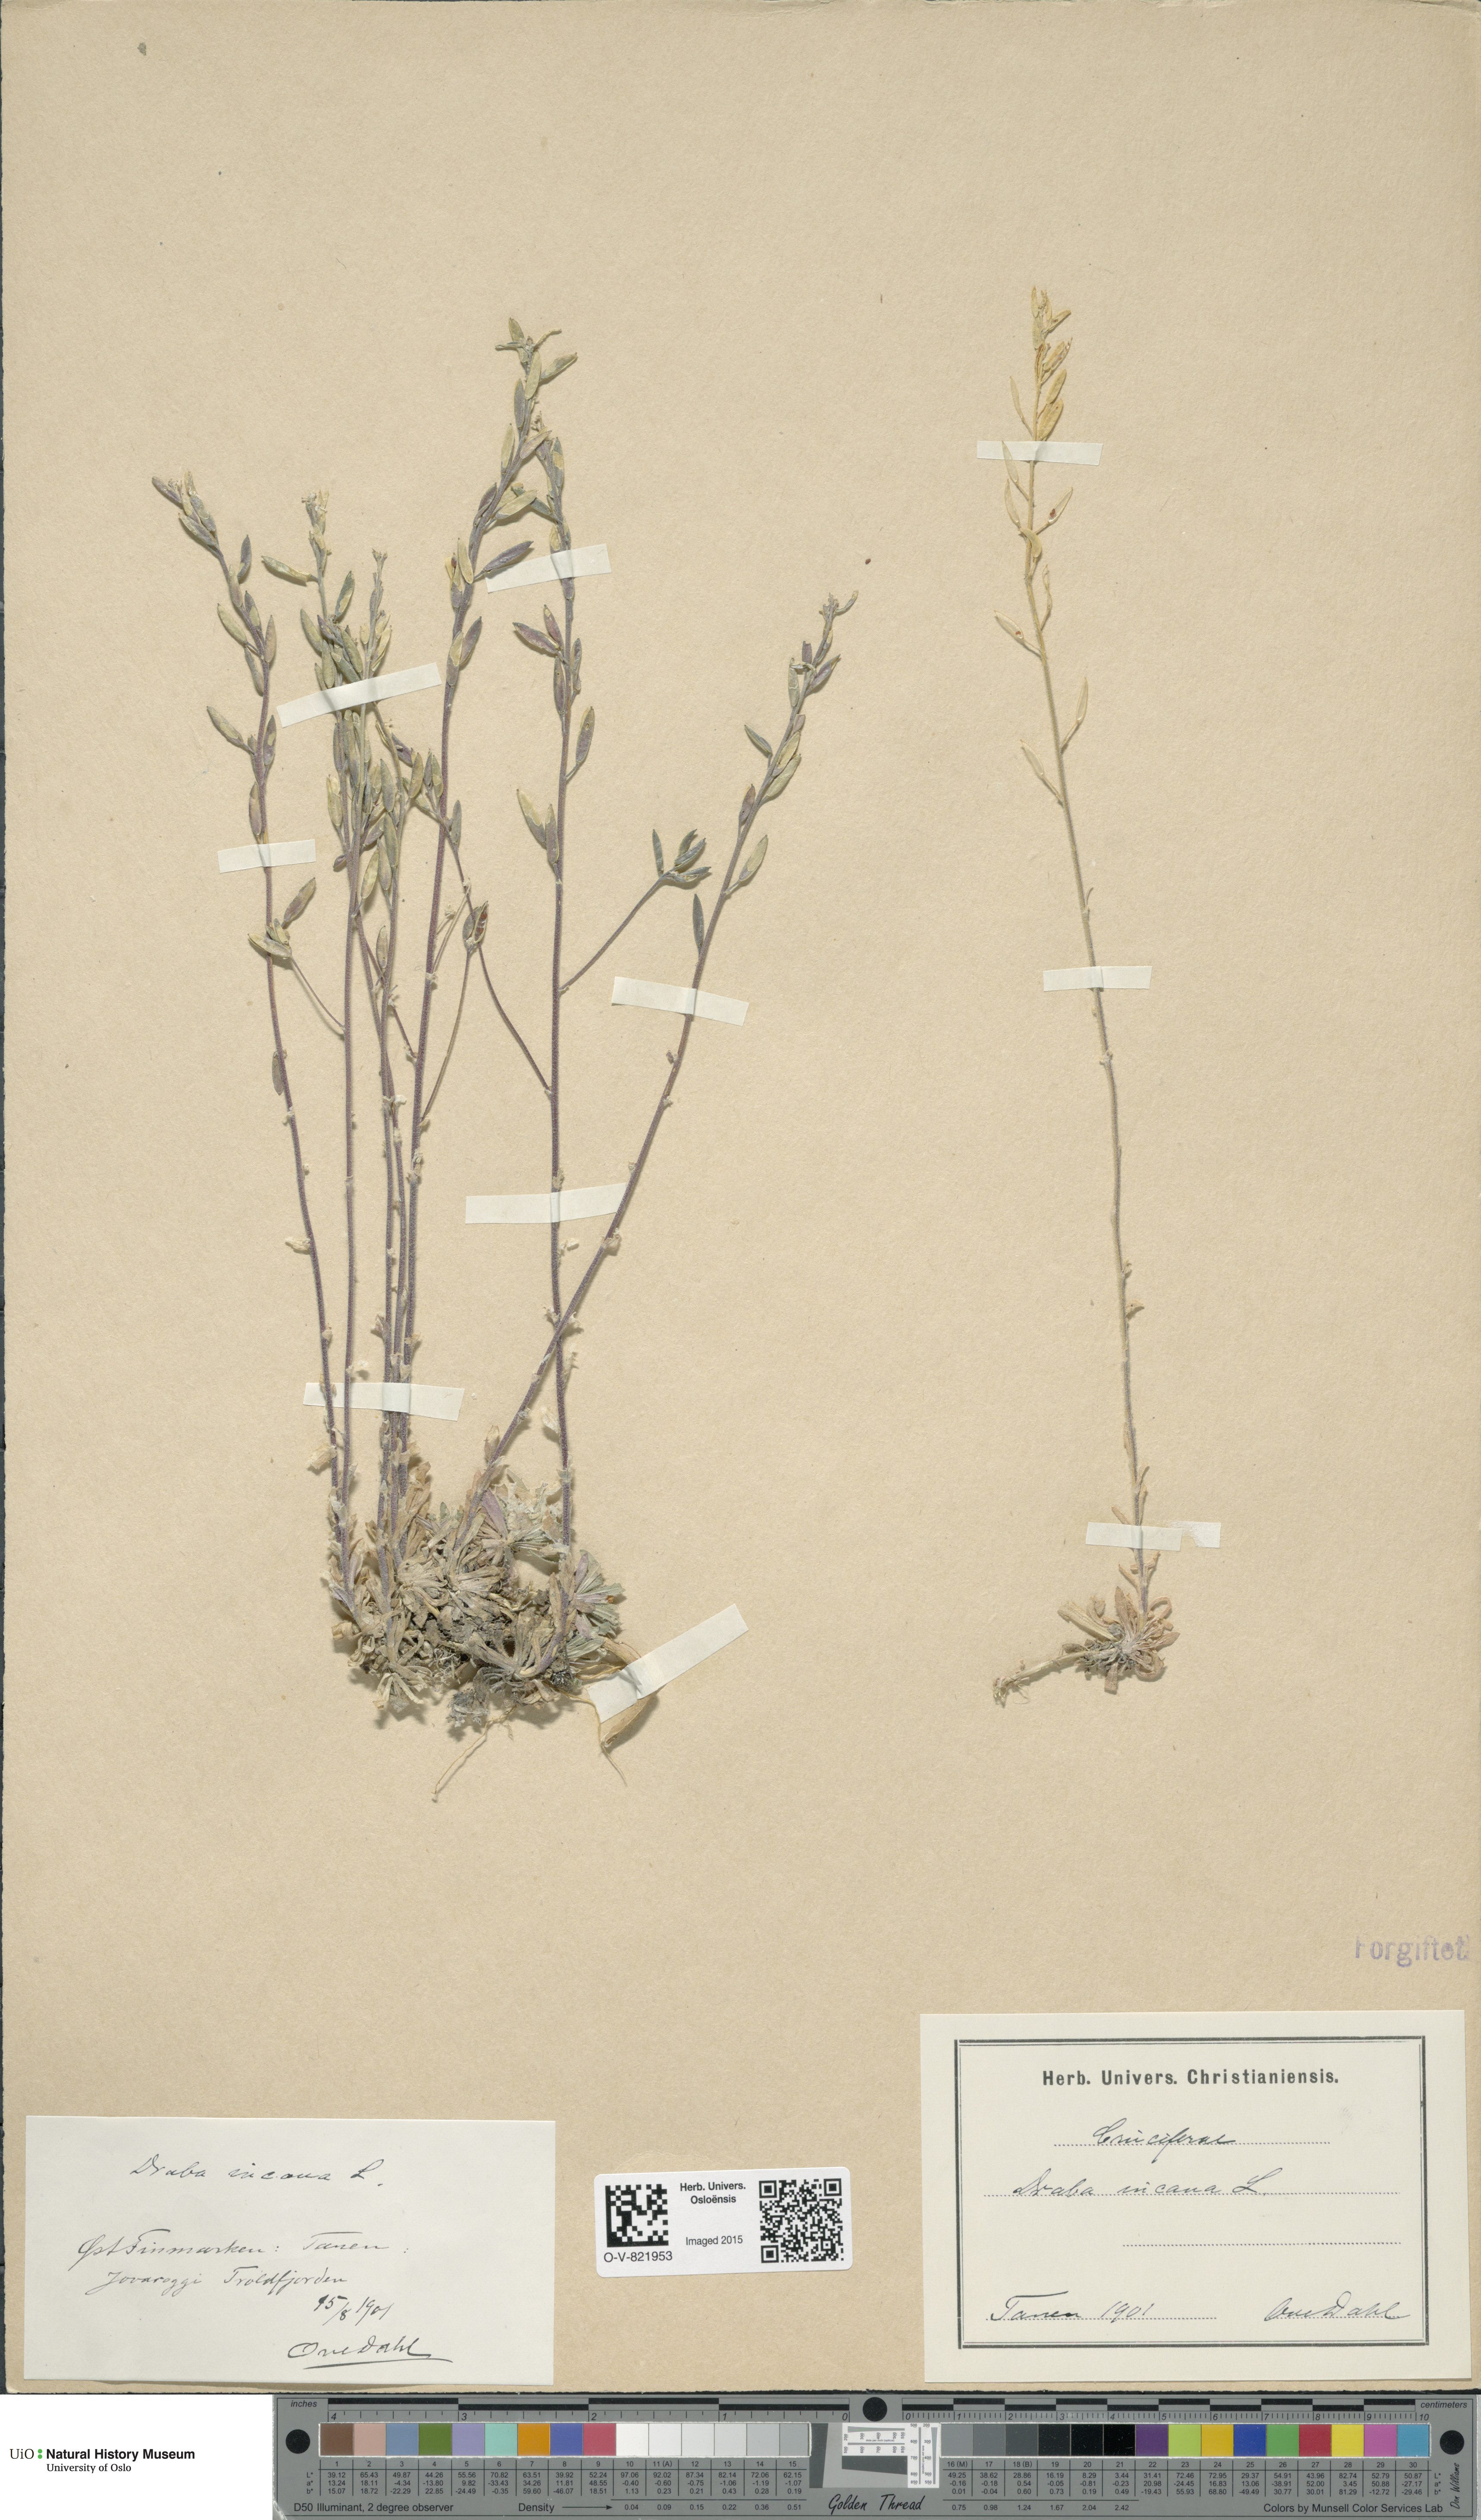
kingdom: Plantae
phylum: Tracheophyta
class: Magnoliopsida
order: Brassicales
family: Brassicaceae
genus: Draba
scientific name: Draba incana
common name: Hoary whitlow-grass
